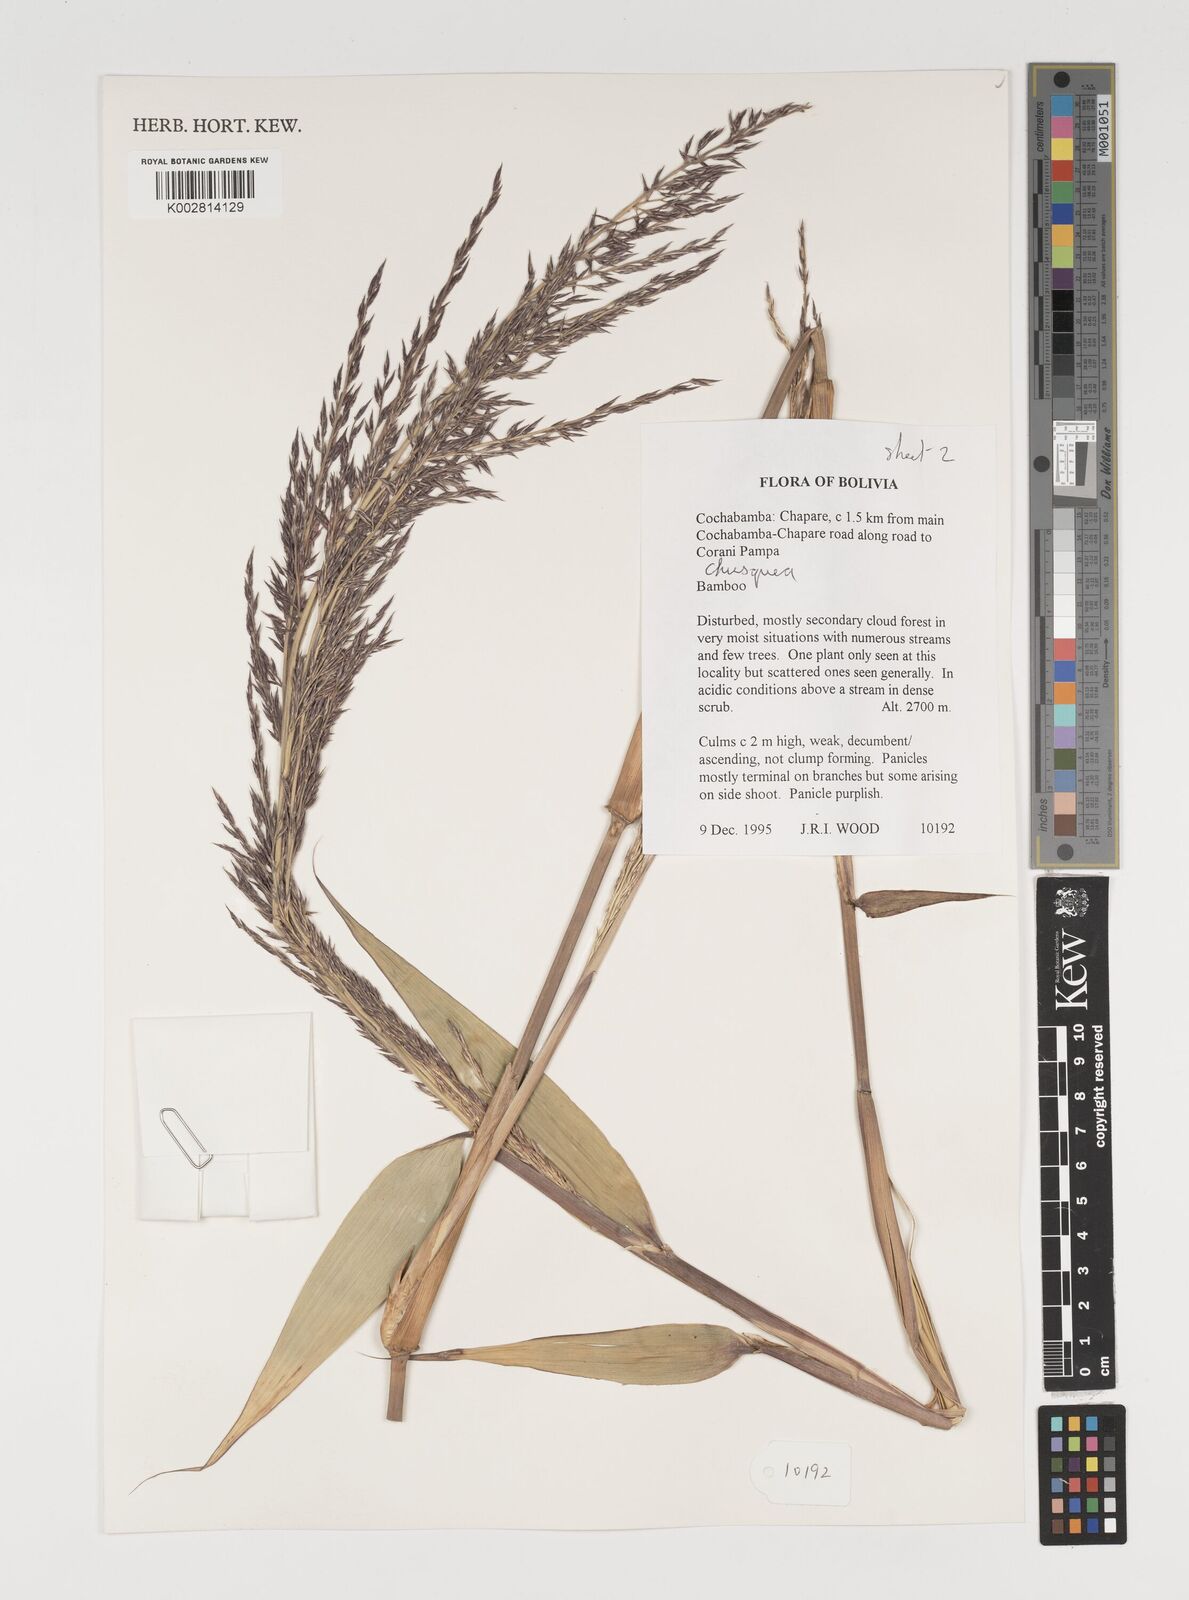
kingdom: Plantae
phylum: Tracheophyta
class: Liliopsida
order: Poales
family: Poaceae
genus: Chusquea
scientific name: Chusquea
